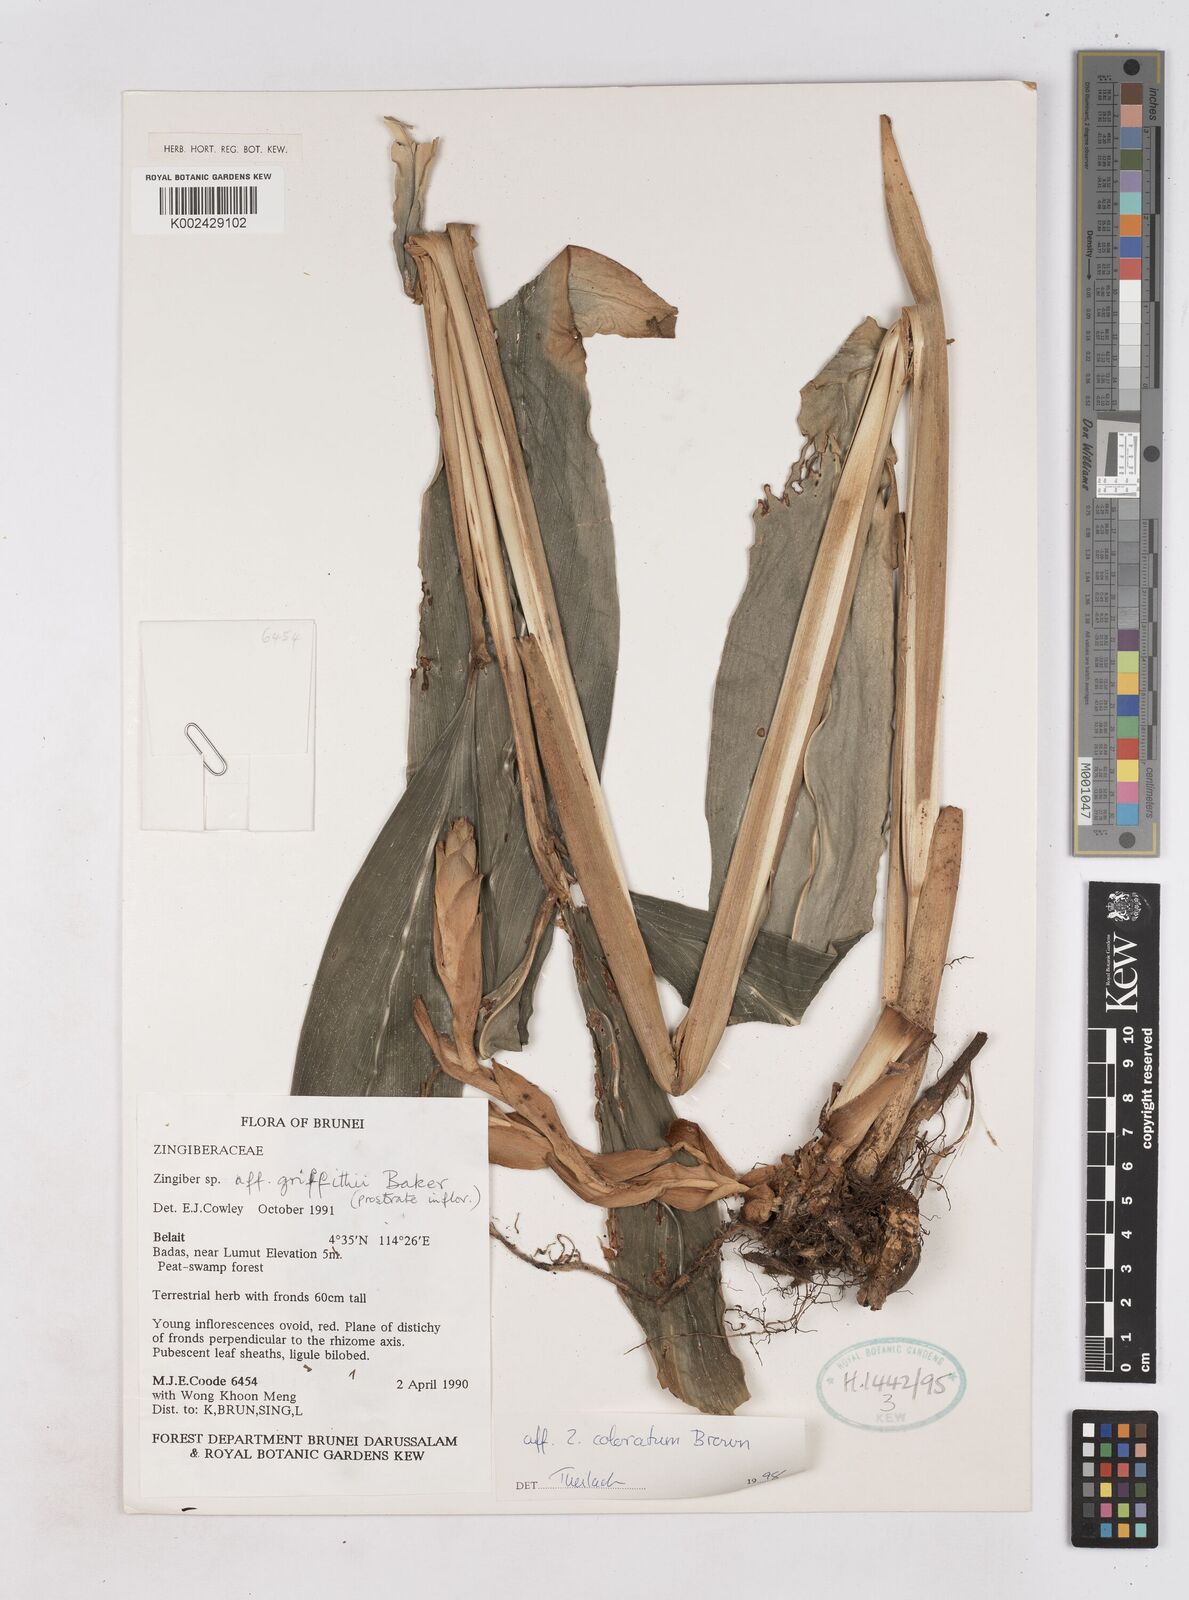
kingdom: Plantae
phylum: Tracheophyta
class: Liliopsida
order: Zingiberales
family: Zingiberaceae
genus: Zingiber
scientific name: Zingiber coloratum
